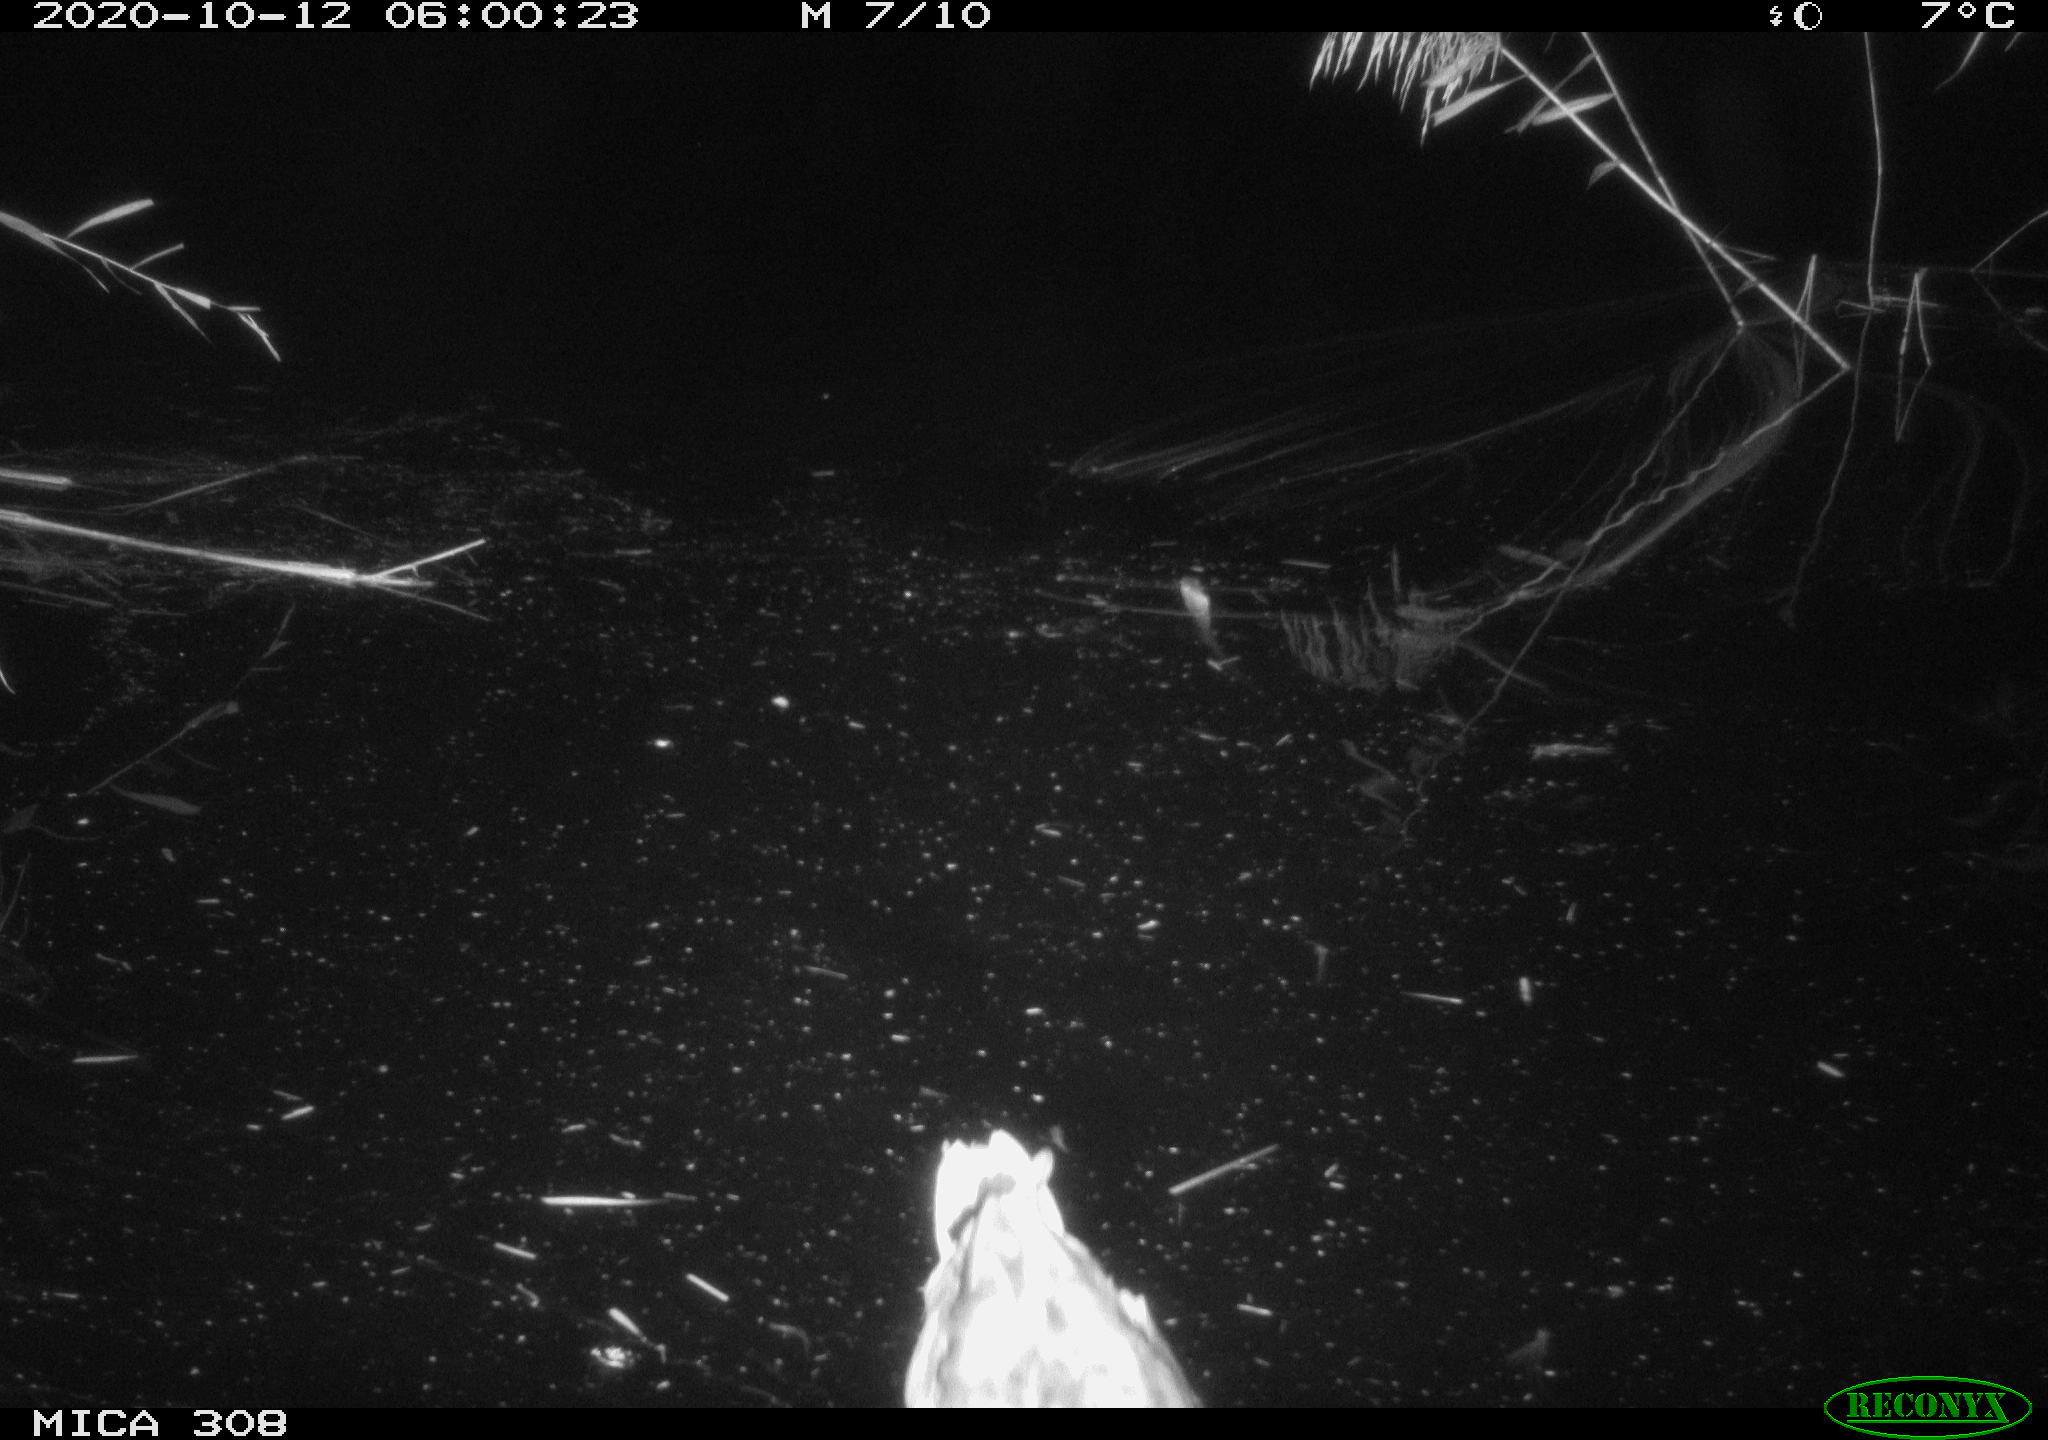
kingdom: Animalia
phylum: Chordata
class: Aves
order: Gruiformes
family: Rallidae
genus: Gallinula
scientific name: Gallinula chloropus
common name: Common moorhen
